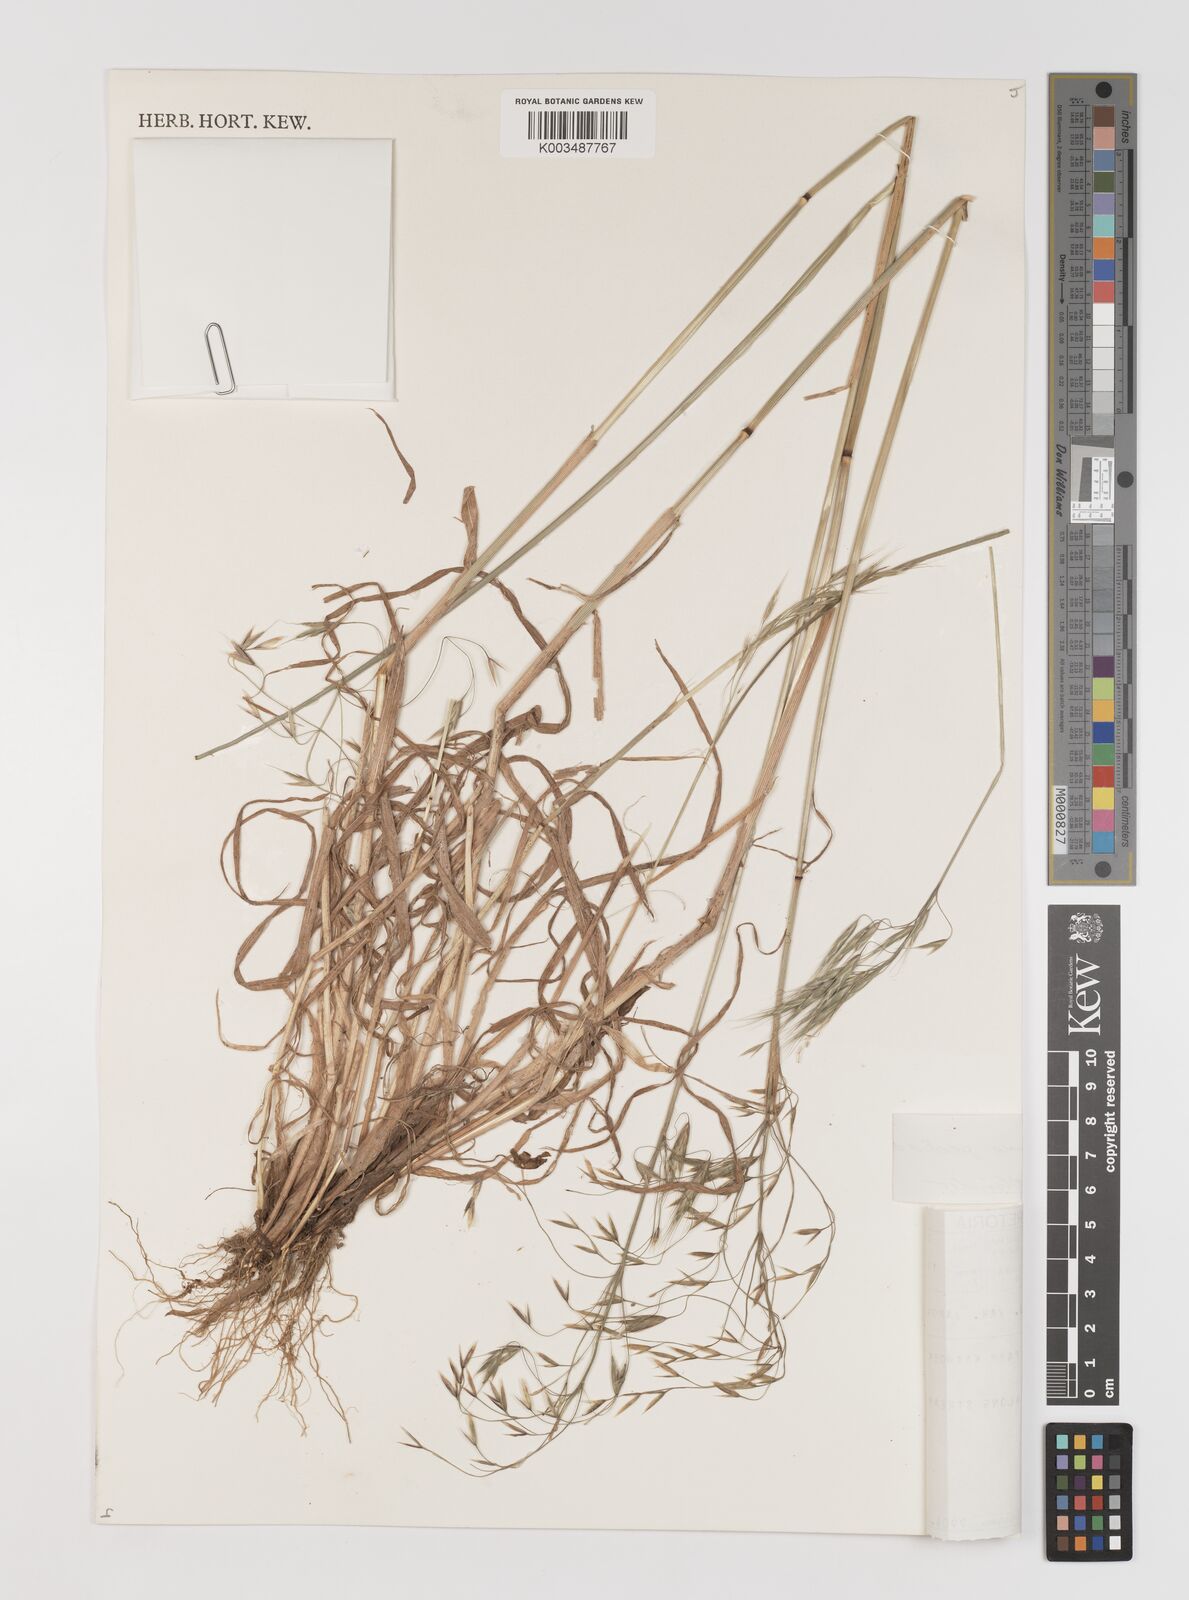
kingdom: Plantae
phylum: Tracheophyta
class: Liliopsida
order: Poales
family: Poaceae
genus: Bromus
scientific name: Bromus pectinatus
